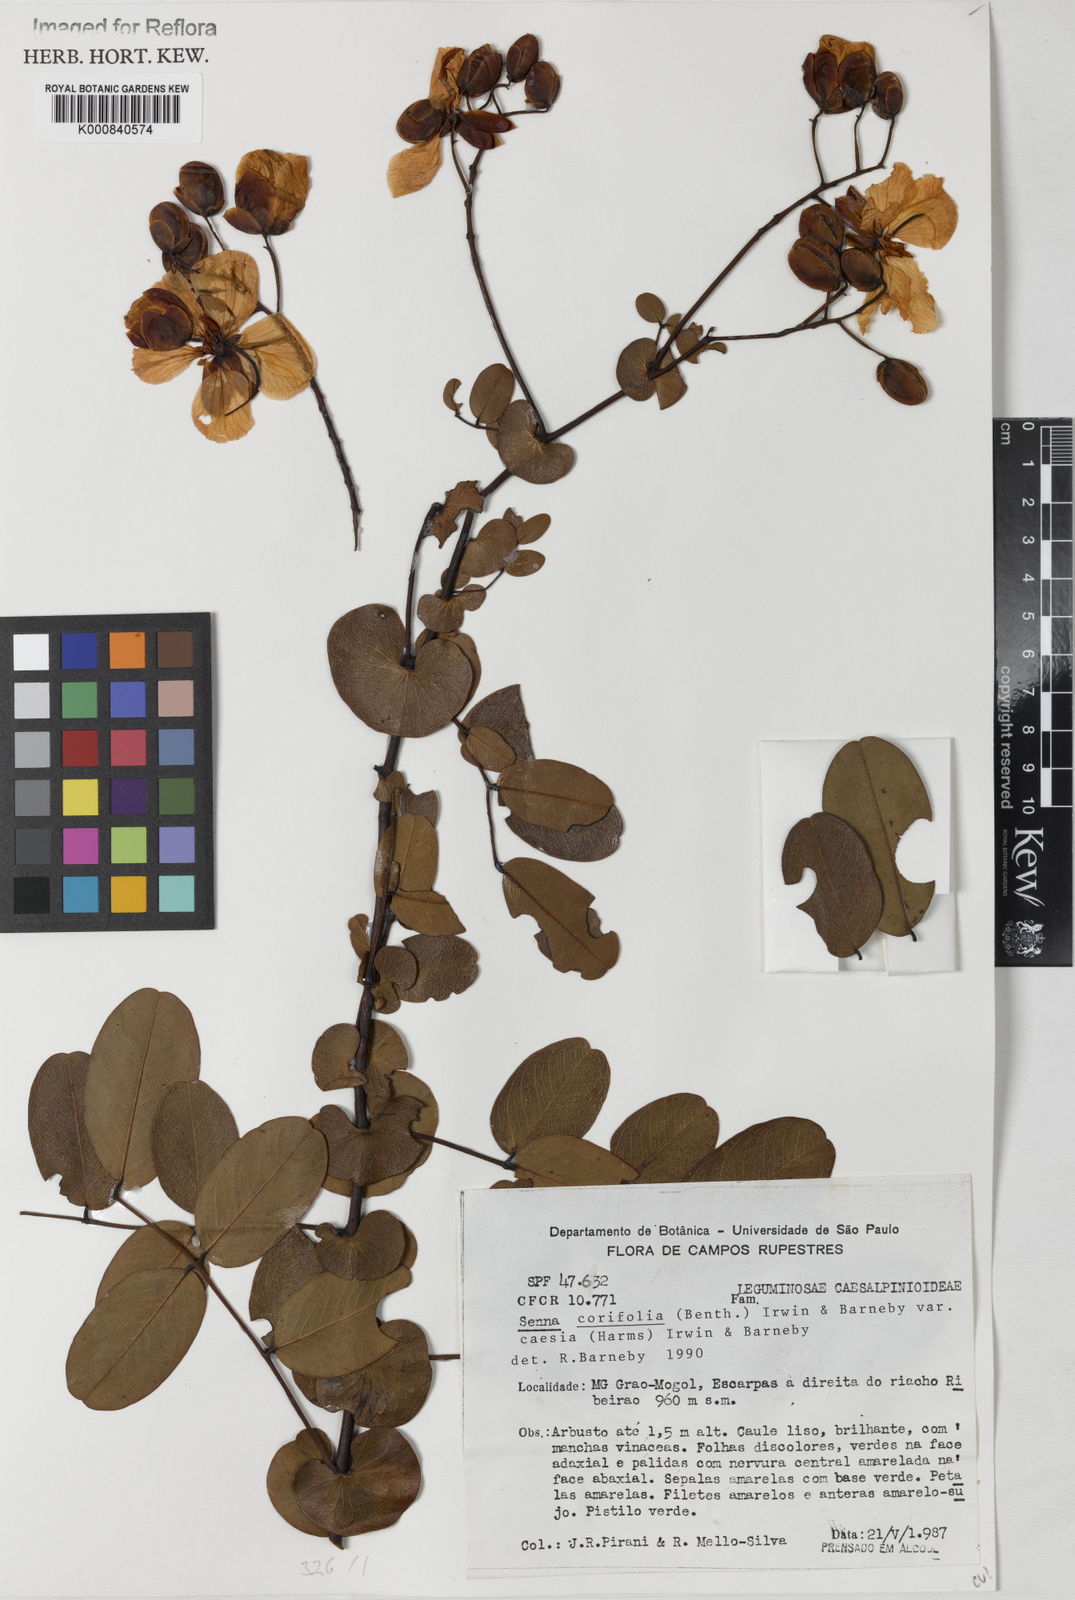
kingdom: Plantae
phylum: Tracheophyta
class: Magnoliopsida
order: Fabales
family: Fabaceae
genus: Senna
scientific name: Senna corifolia
